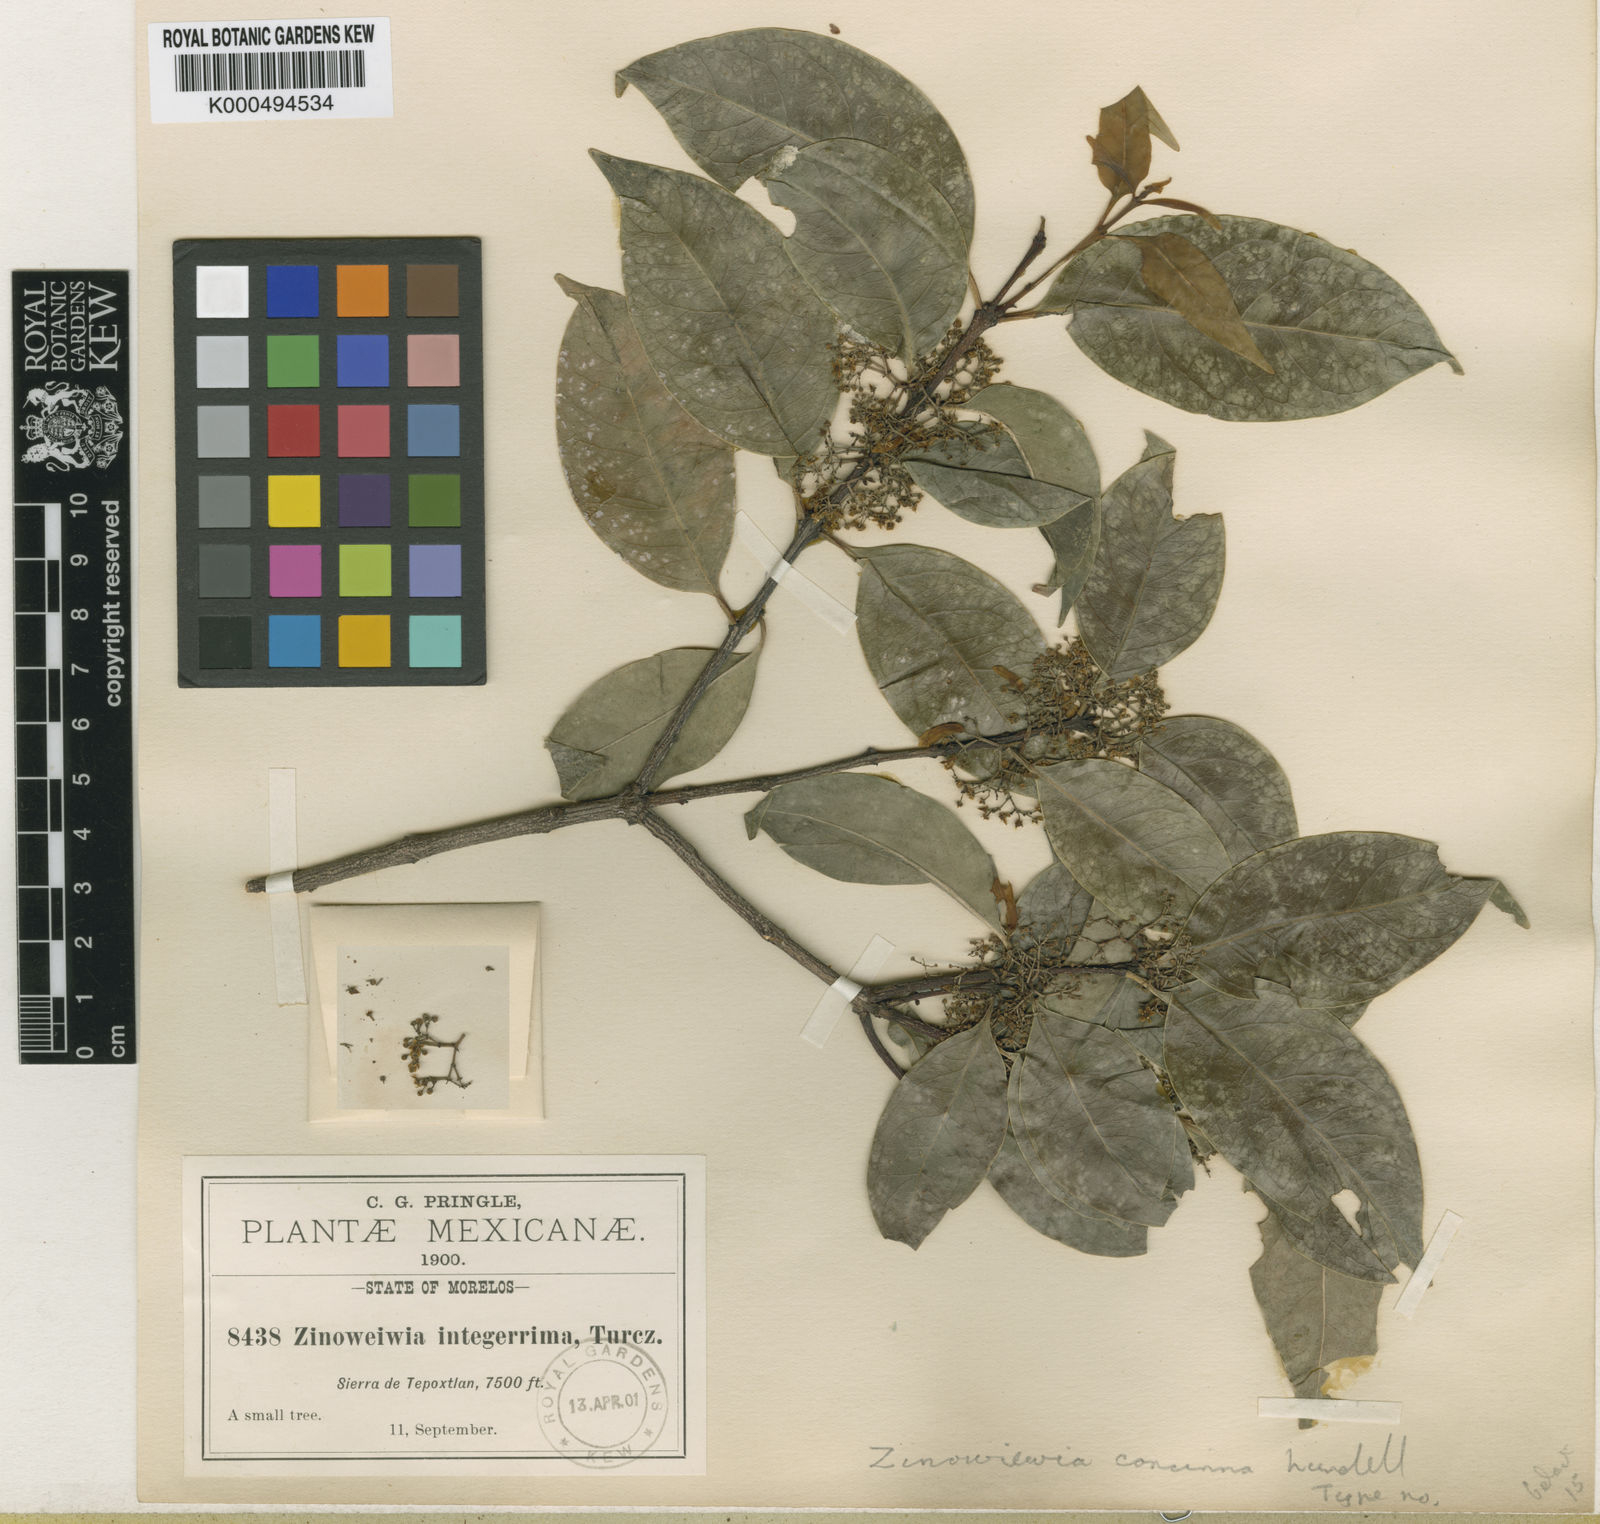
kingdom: Plantae
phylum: Tracheophyta
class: Magnoliopsida
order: Celastrales
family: Celastraceae
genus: Zinowiewia
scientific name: Zinowiewia concinna
